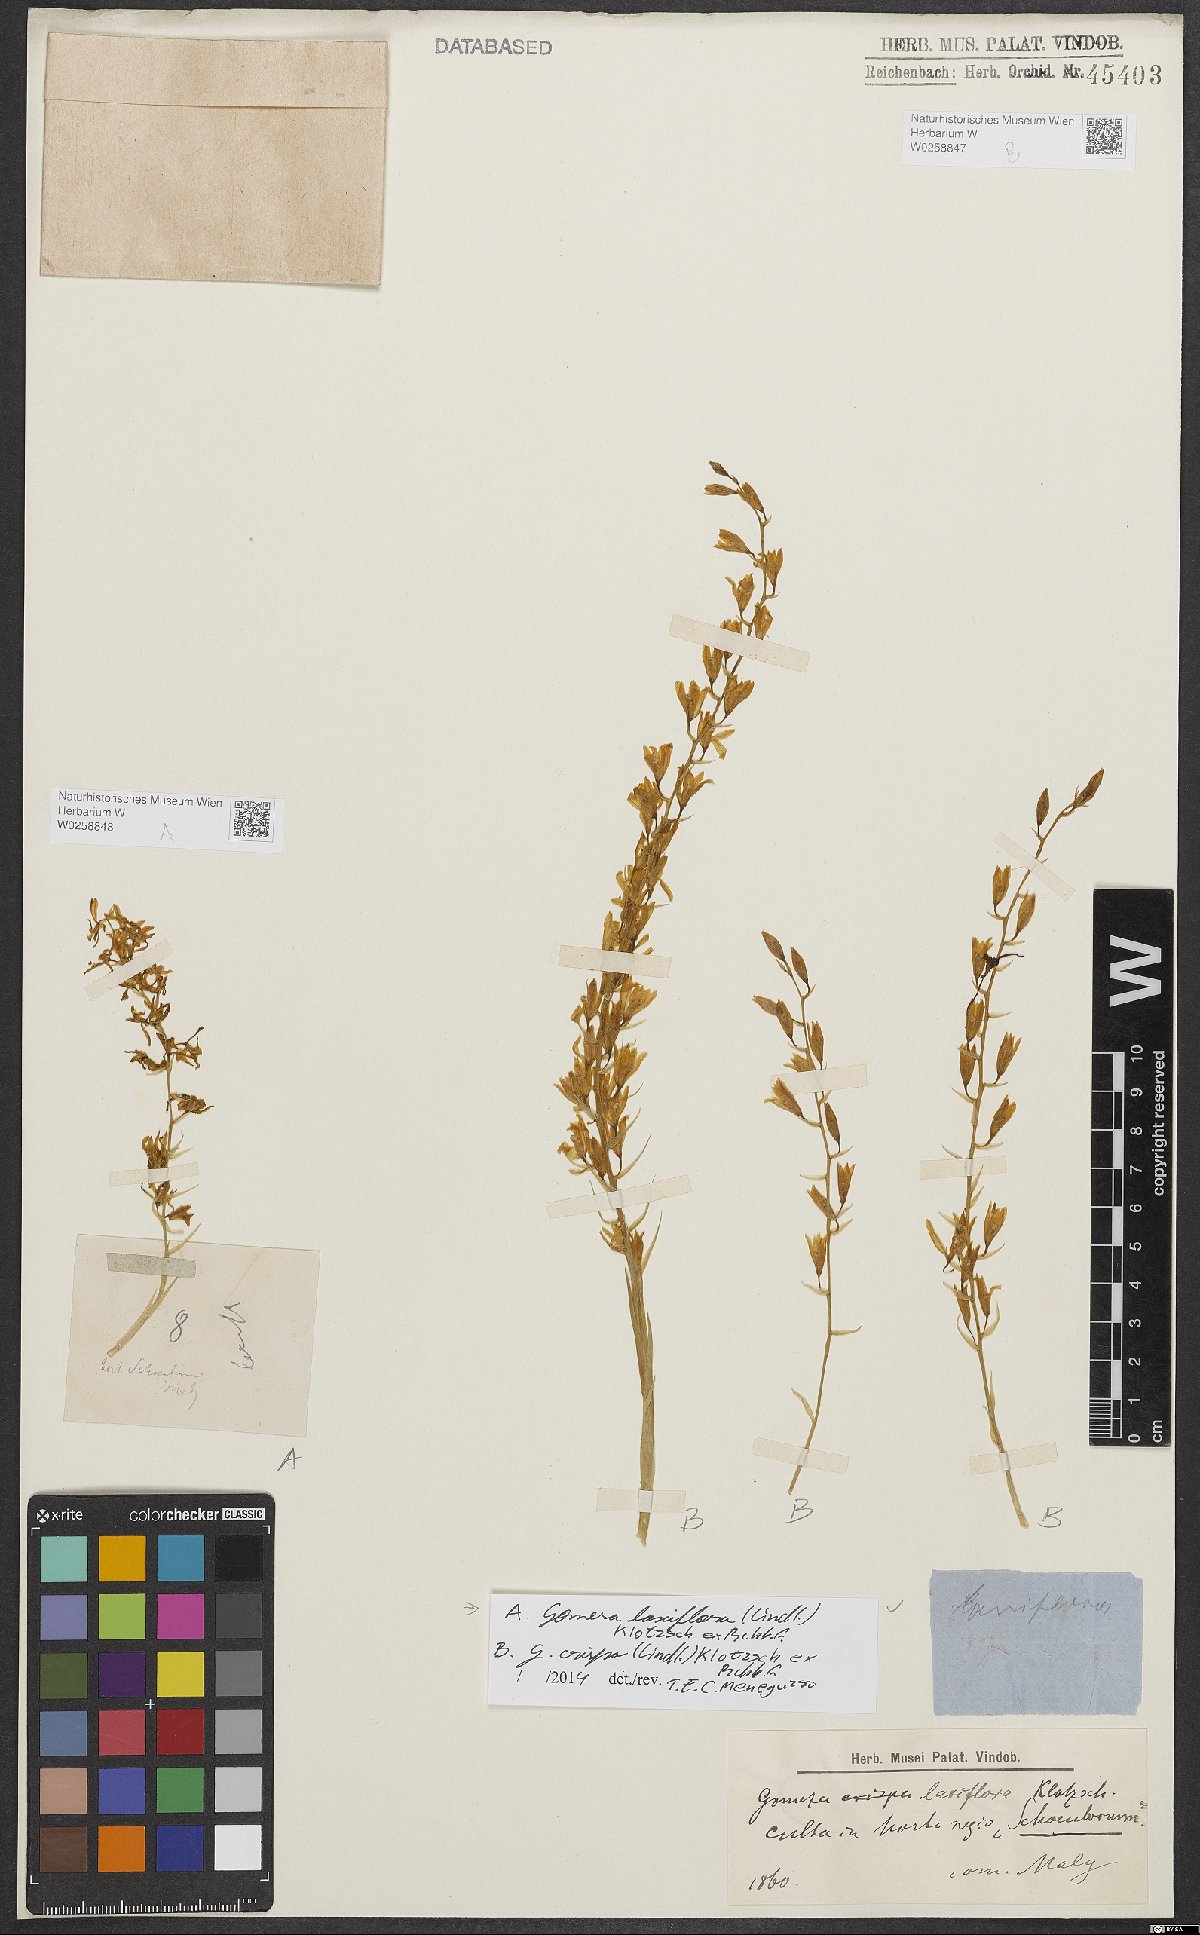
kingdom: Plantae
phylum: Tracheophyta
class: Liliopsida
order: Asparagales
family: Orchidaceae
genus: Gomesa
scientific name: Gomesa crispa
